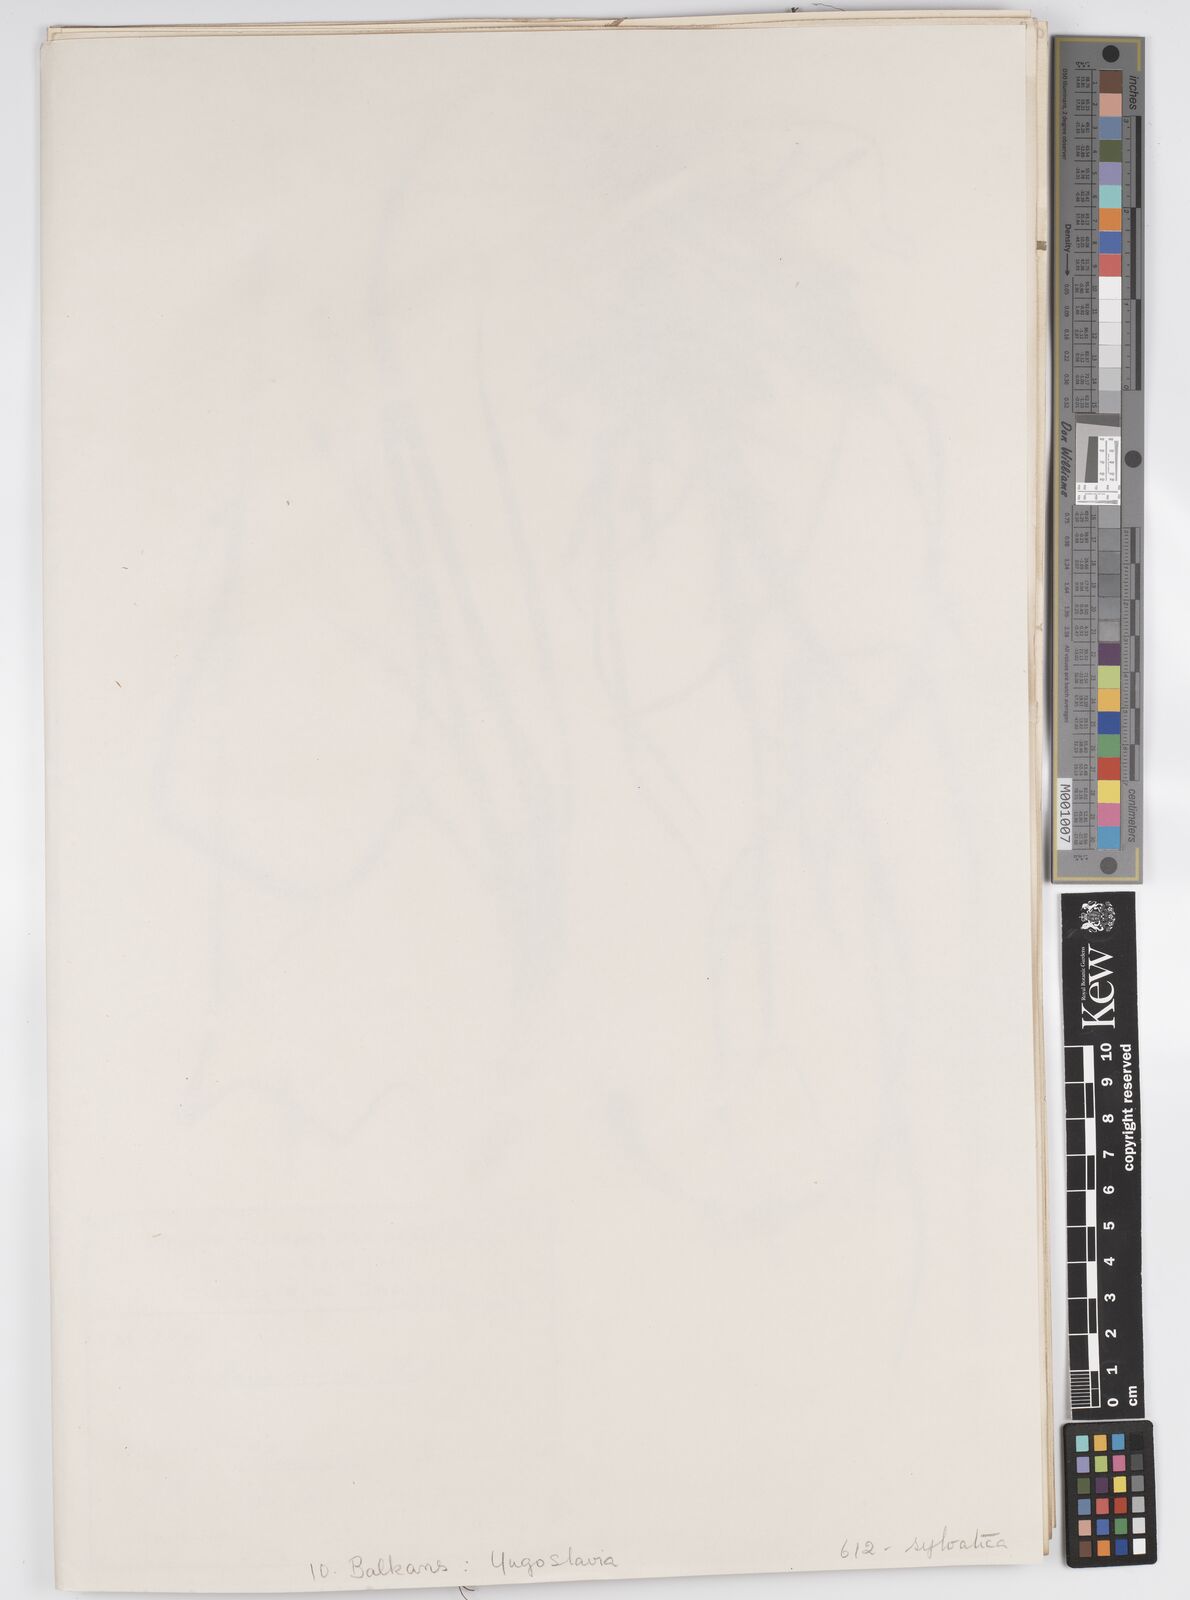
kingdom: Plantae
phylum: Tracheophyta
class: Liliopsida
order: Poales
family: Cyperaceae
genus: Carex
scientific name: Carex sylvatica
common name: Wood-sedge
